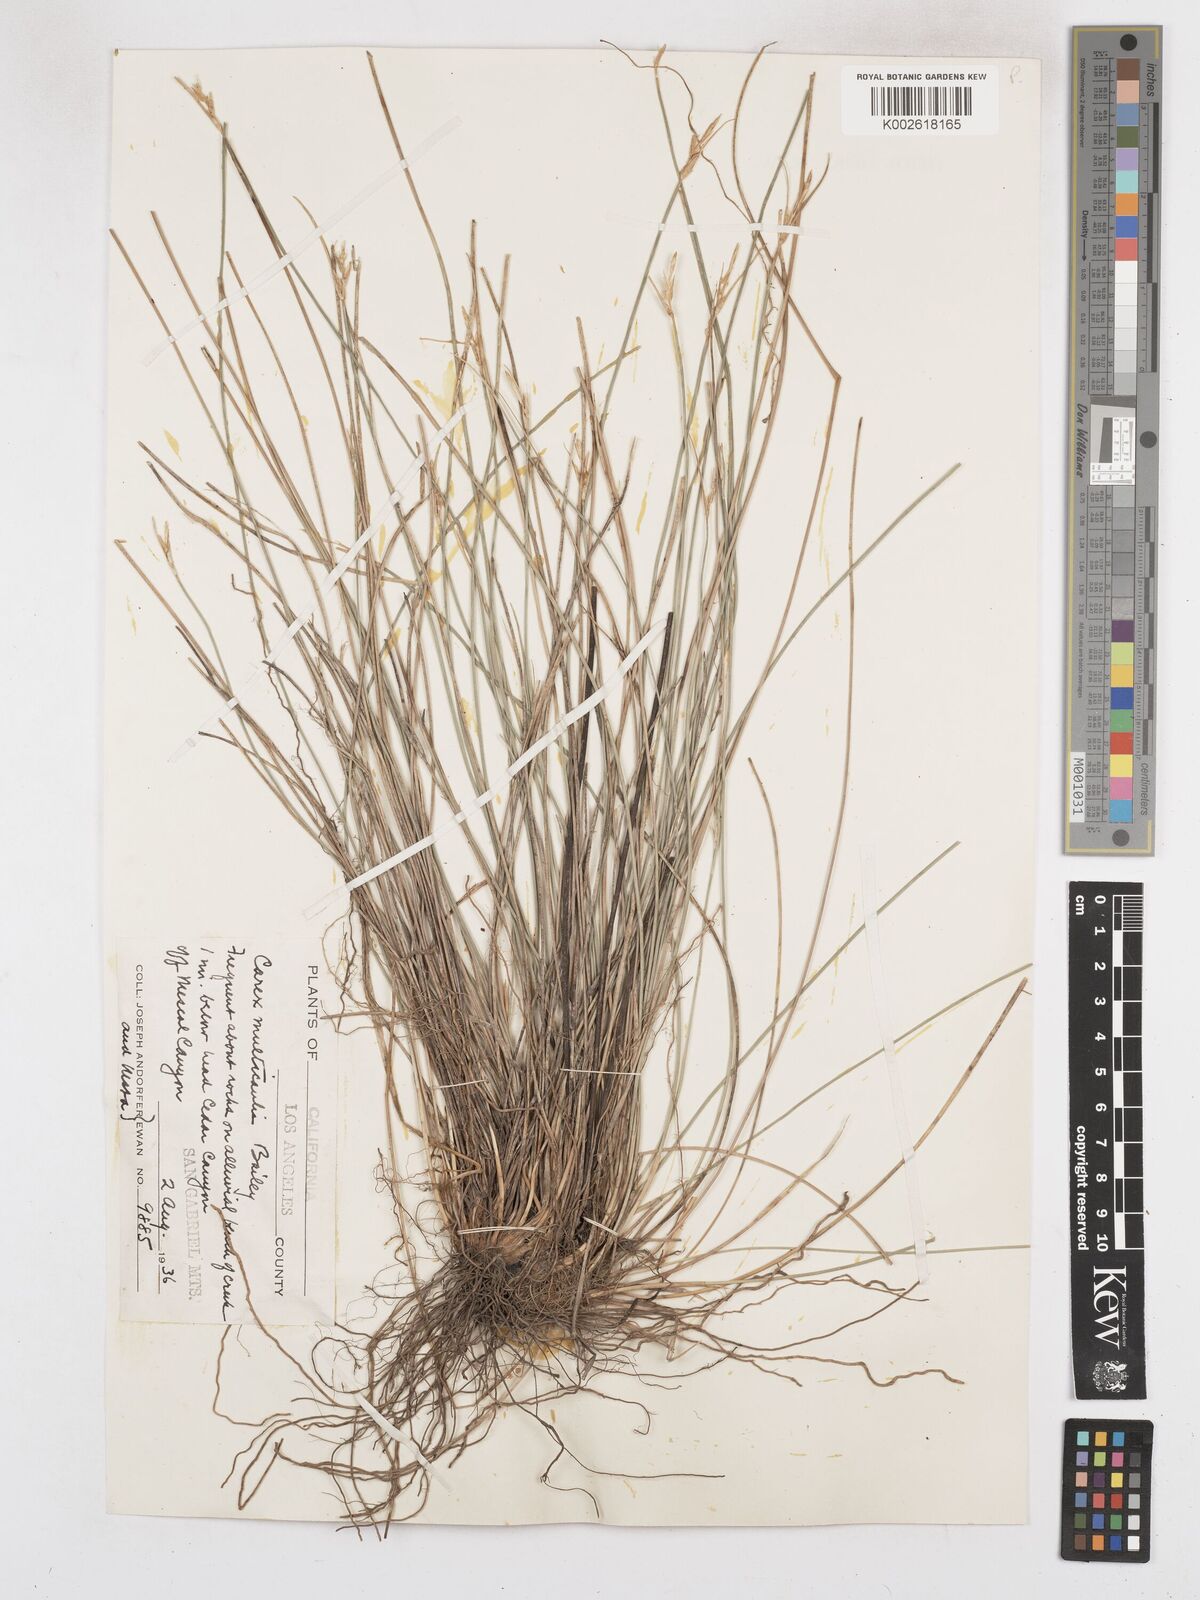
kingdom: Plantae
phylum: Tracheophyta
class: Liliopsida
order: Poales
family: Cyperaceae
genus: Carex
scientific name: Carex multicaulis
